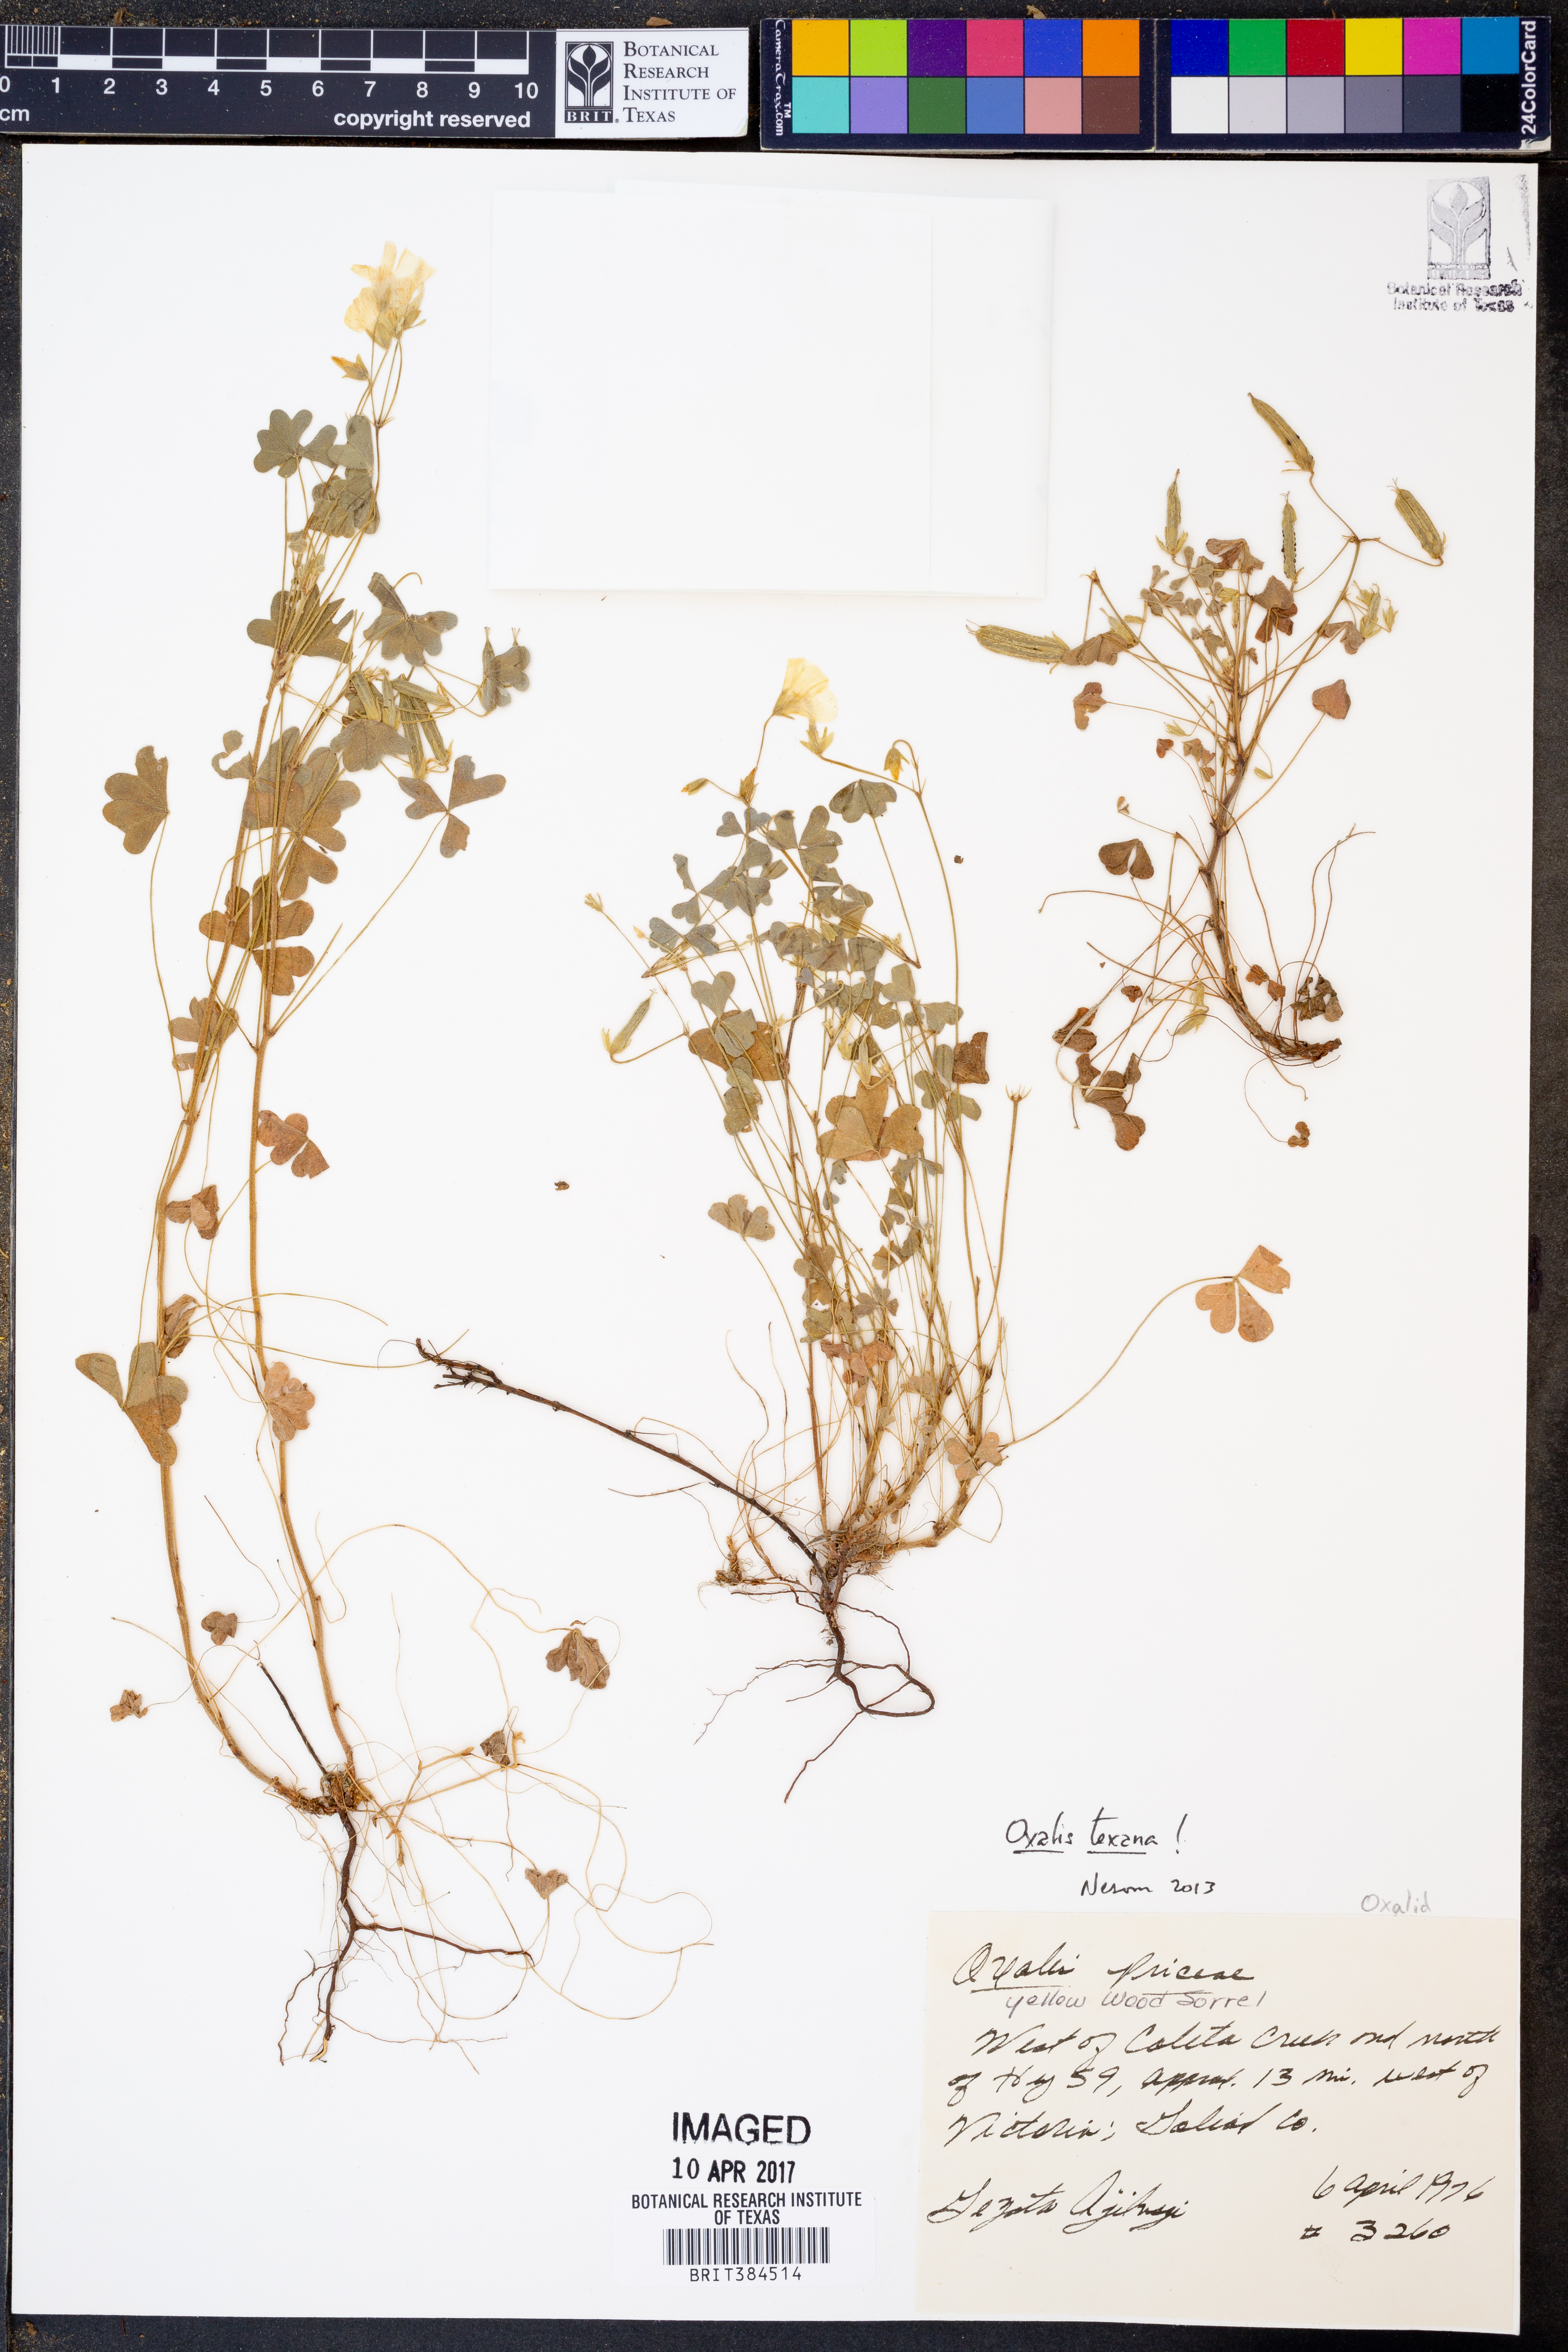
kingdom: Plantae
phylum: Tracheophyta
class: Magnoliopsida
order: Oxalidales
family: Oxalidaceae
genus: Oxalis
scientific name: Oxalis texana
